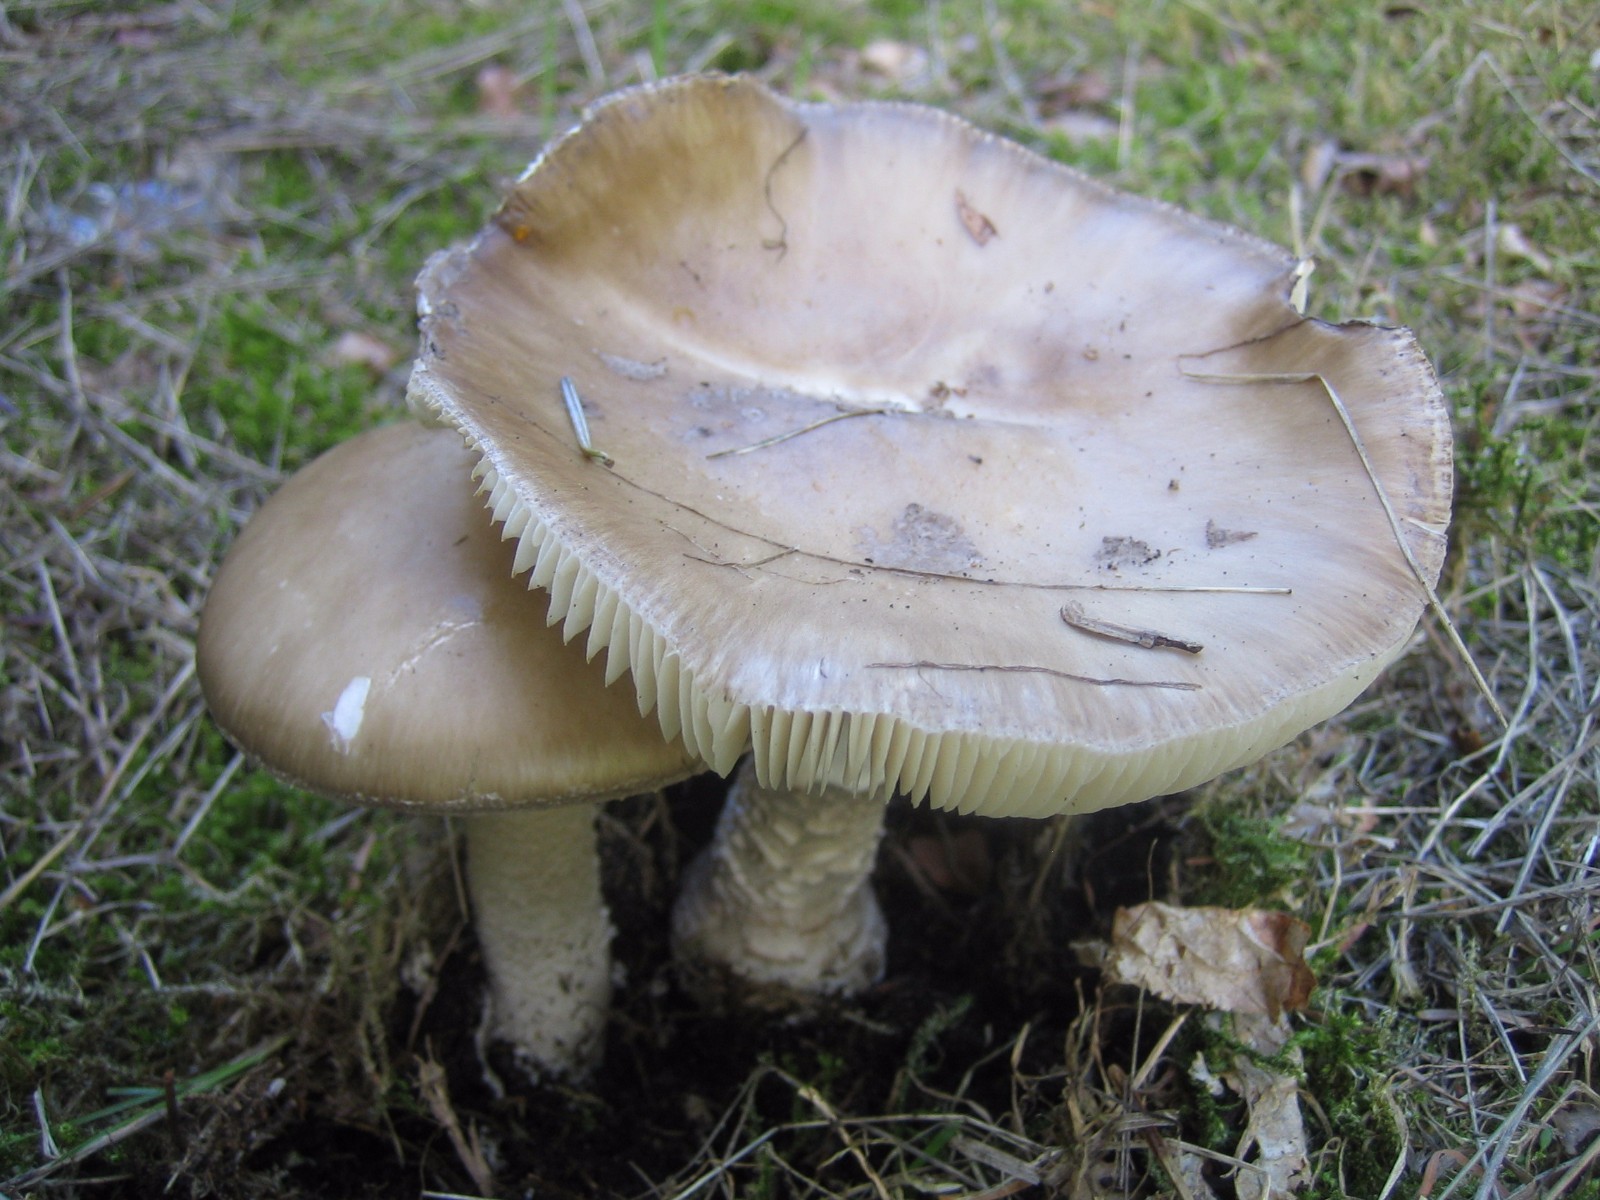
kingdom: Fungi
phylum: Basidiomycota
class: Agaricomycetes
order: Agaricales
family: Amanitaceae
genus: Amanita
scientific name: Amanita
